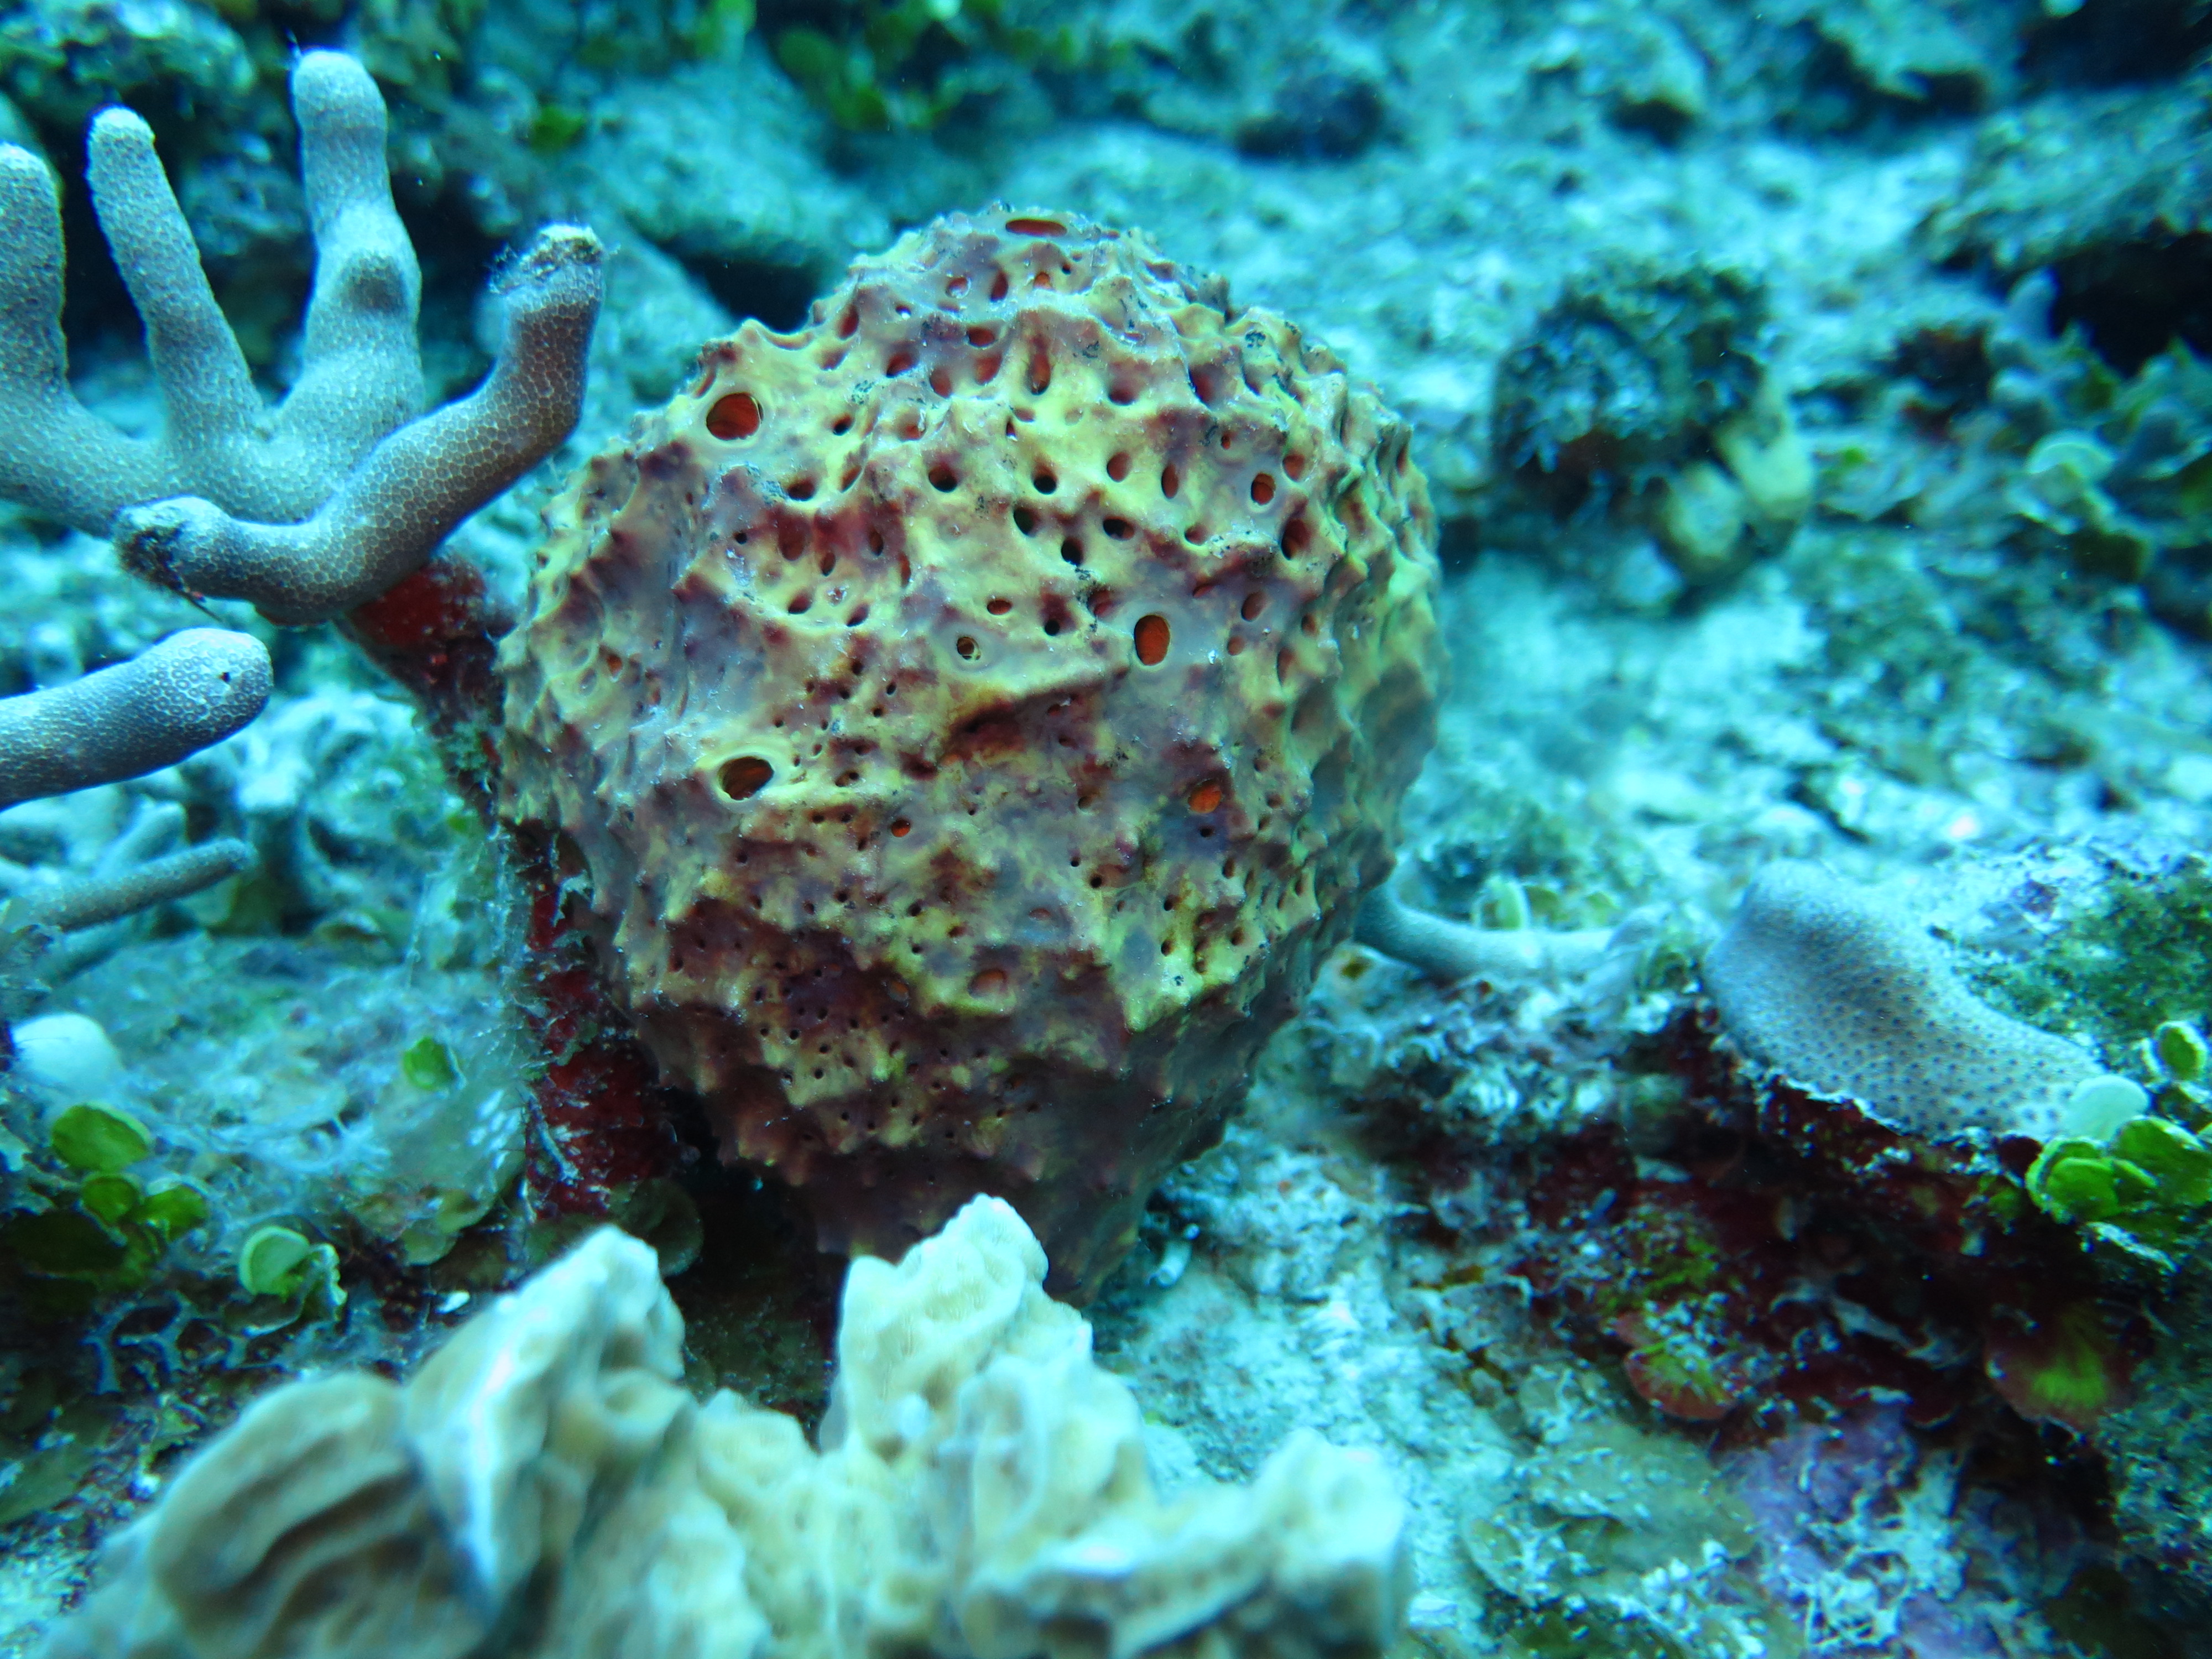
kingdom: Animalia
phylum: Porifera
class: Demospongiae
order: Verongiida
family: Aplysinidae
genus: Aiolochroia
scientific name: Aiolochroia crassa
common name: Branching tube sponge
